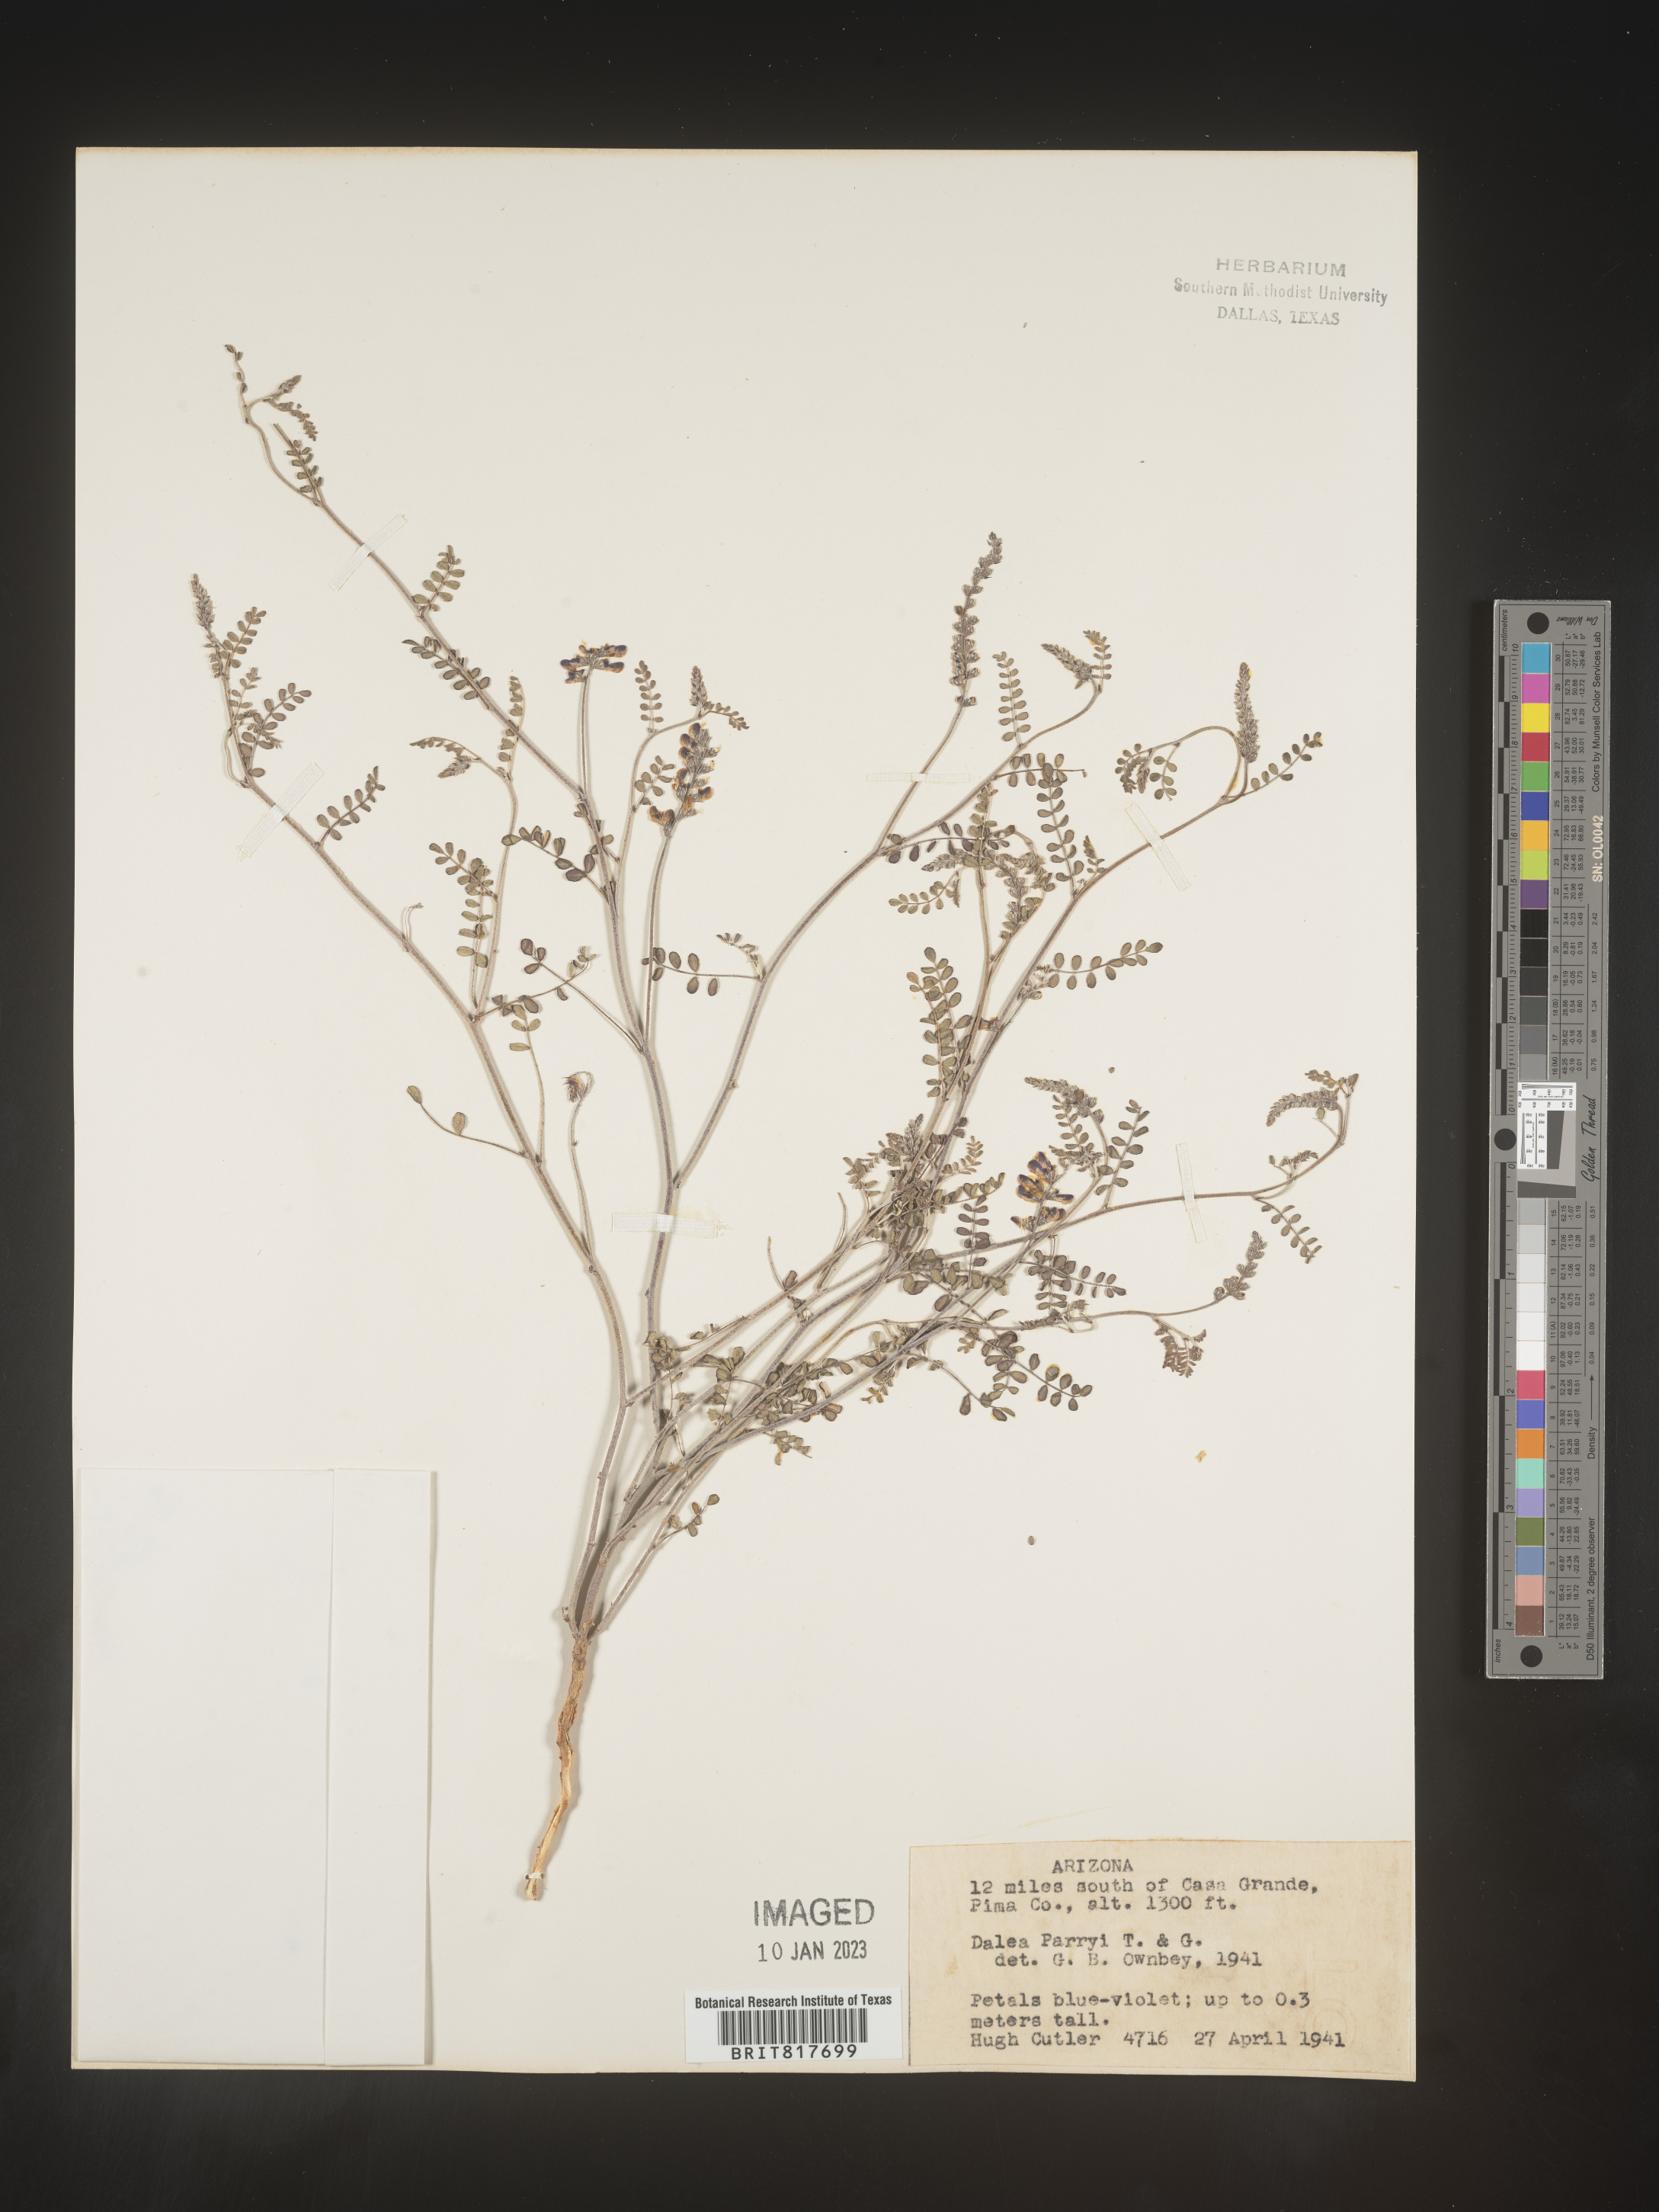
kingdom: Plantae
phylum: Tracheophyta
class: Magnoliopsida
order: Fabales
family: Fabaceae
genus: Marina
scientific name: Marina parryi
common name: Parry's marina
